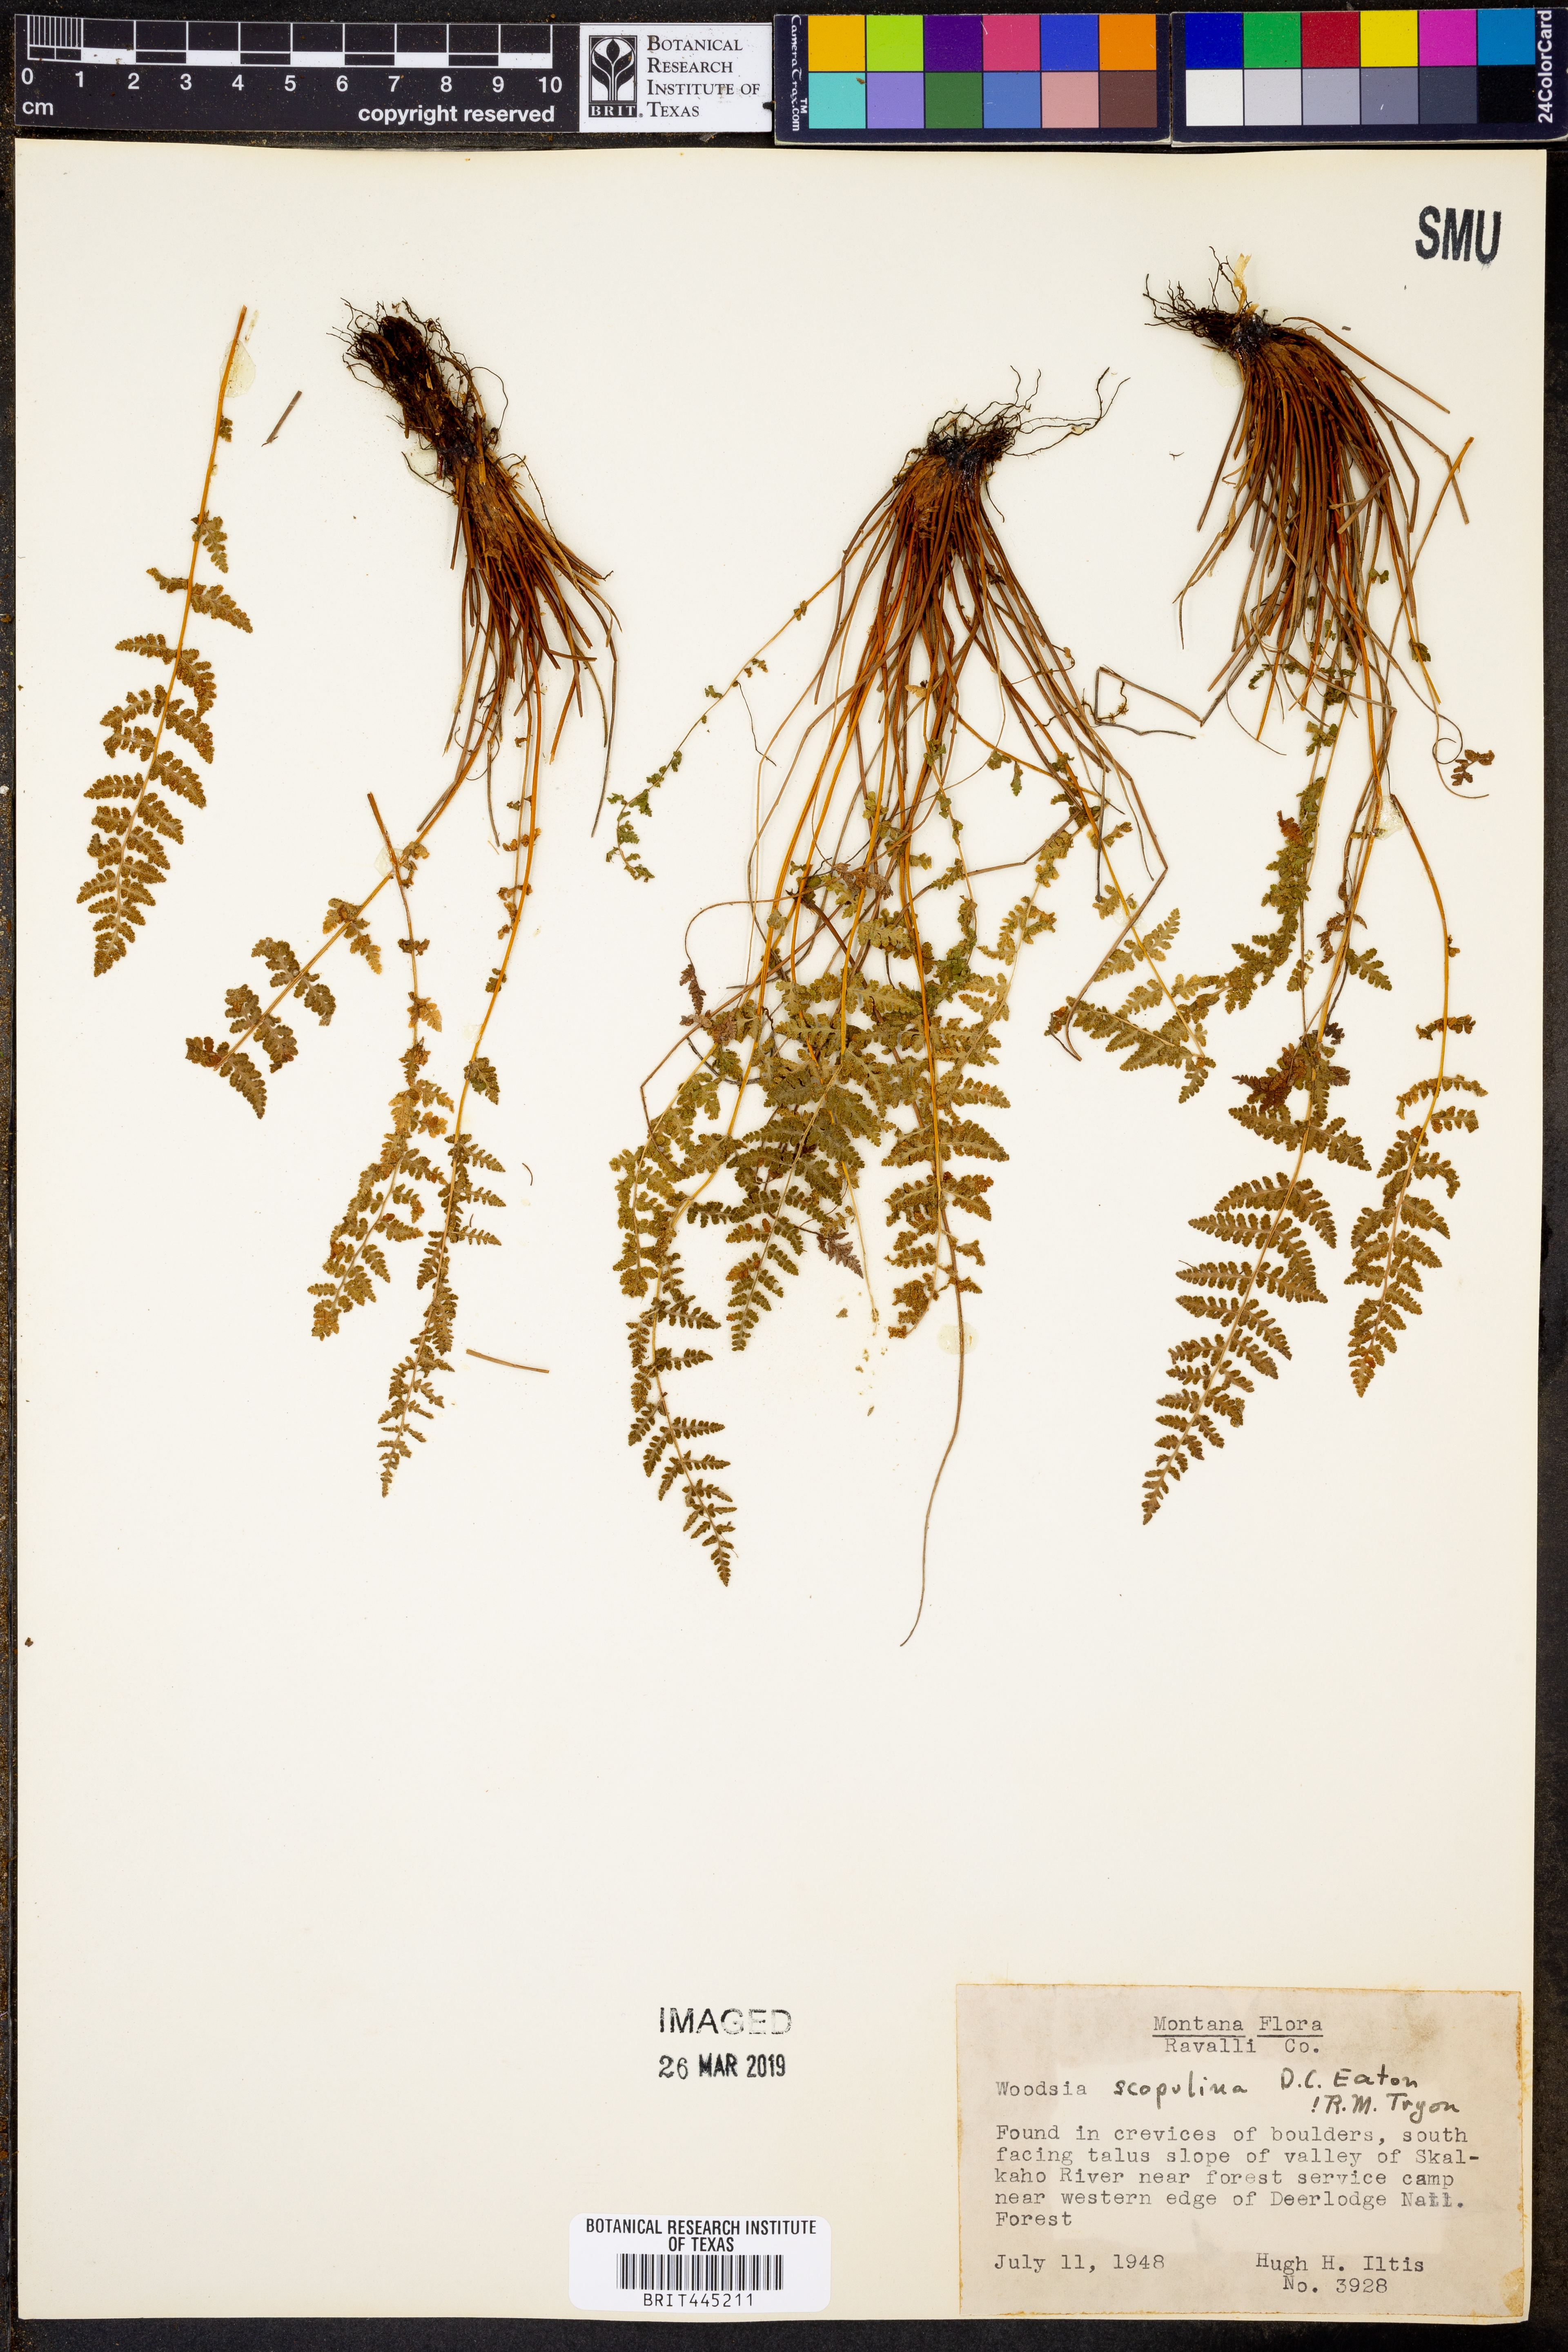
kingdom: Plantae
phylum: Tracheophyta
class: Polypodiopsida
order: Polypodiales
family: Woodsiaceae
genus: Physematium
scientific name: Physematium scopulinum
